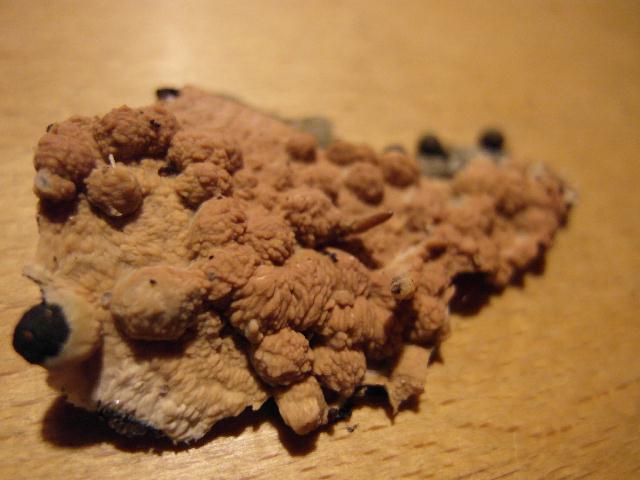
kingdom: Fungi
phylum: Basidiomycota
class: Agaricomycetes
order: Polyporales
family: Meruliaceae
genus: Phlebia
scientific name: Phlebia radiata
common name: stråle-åresvamp
